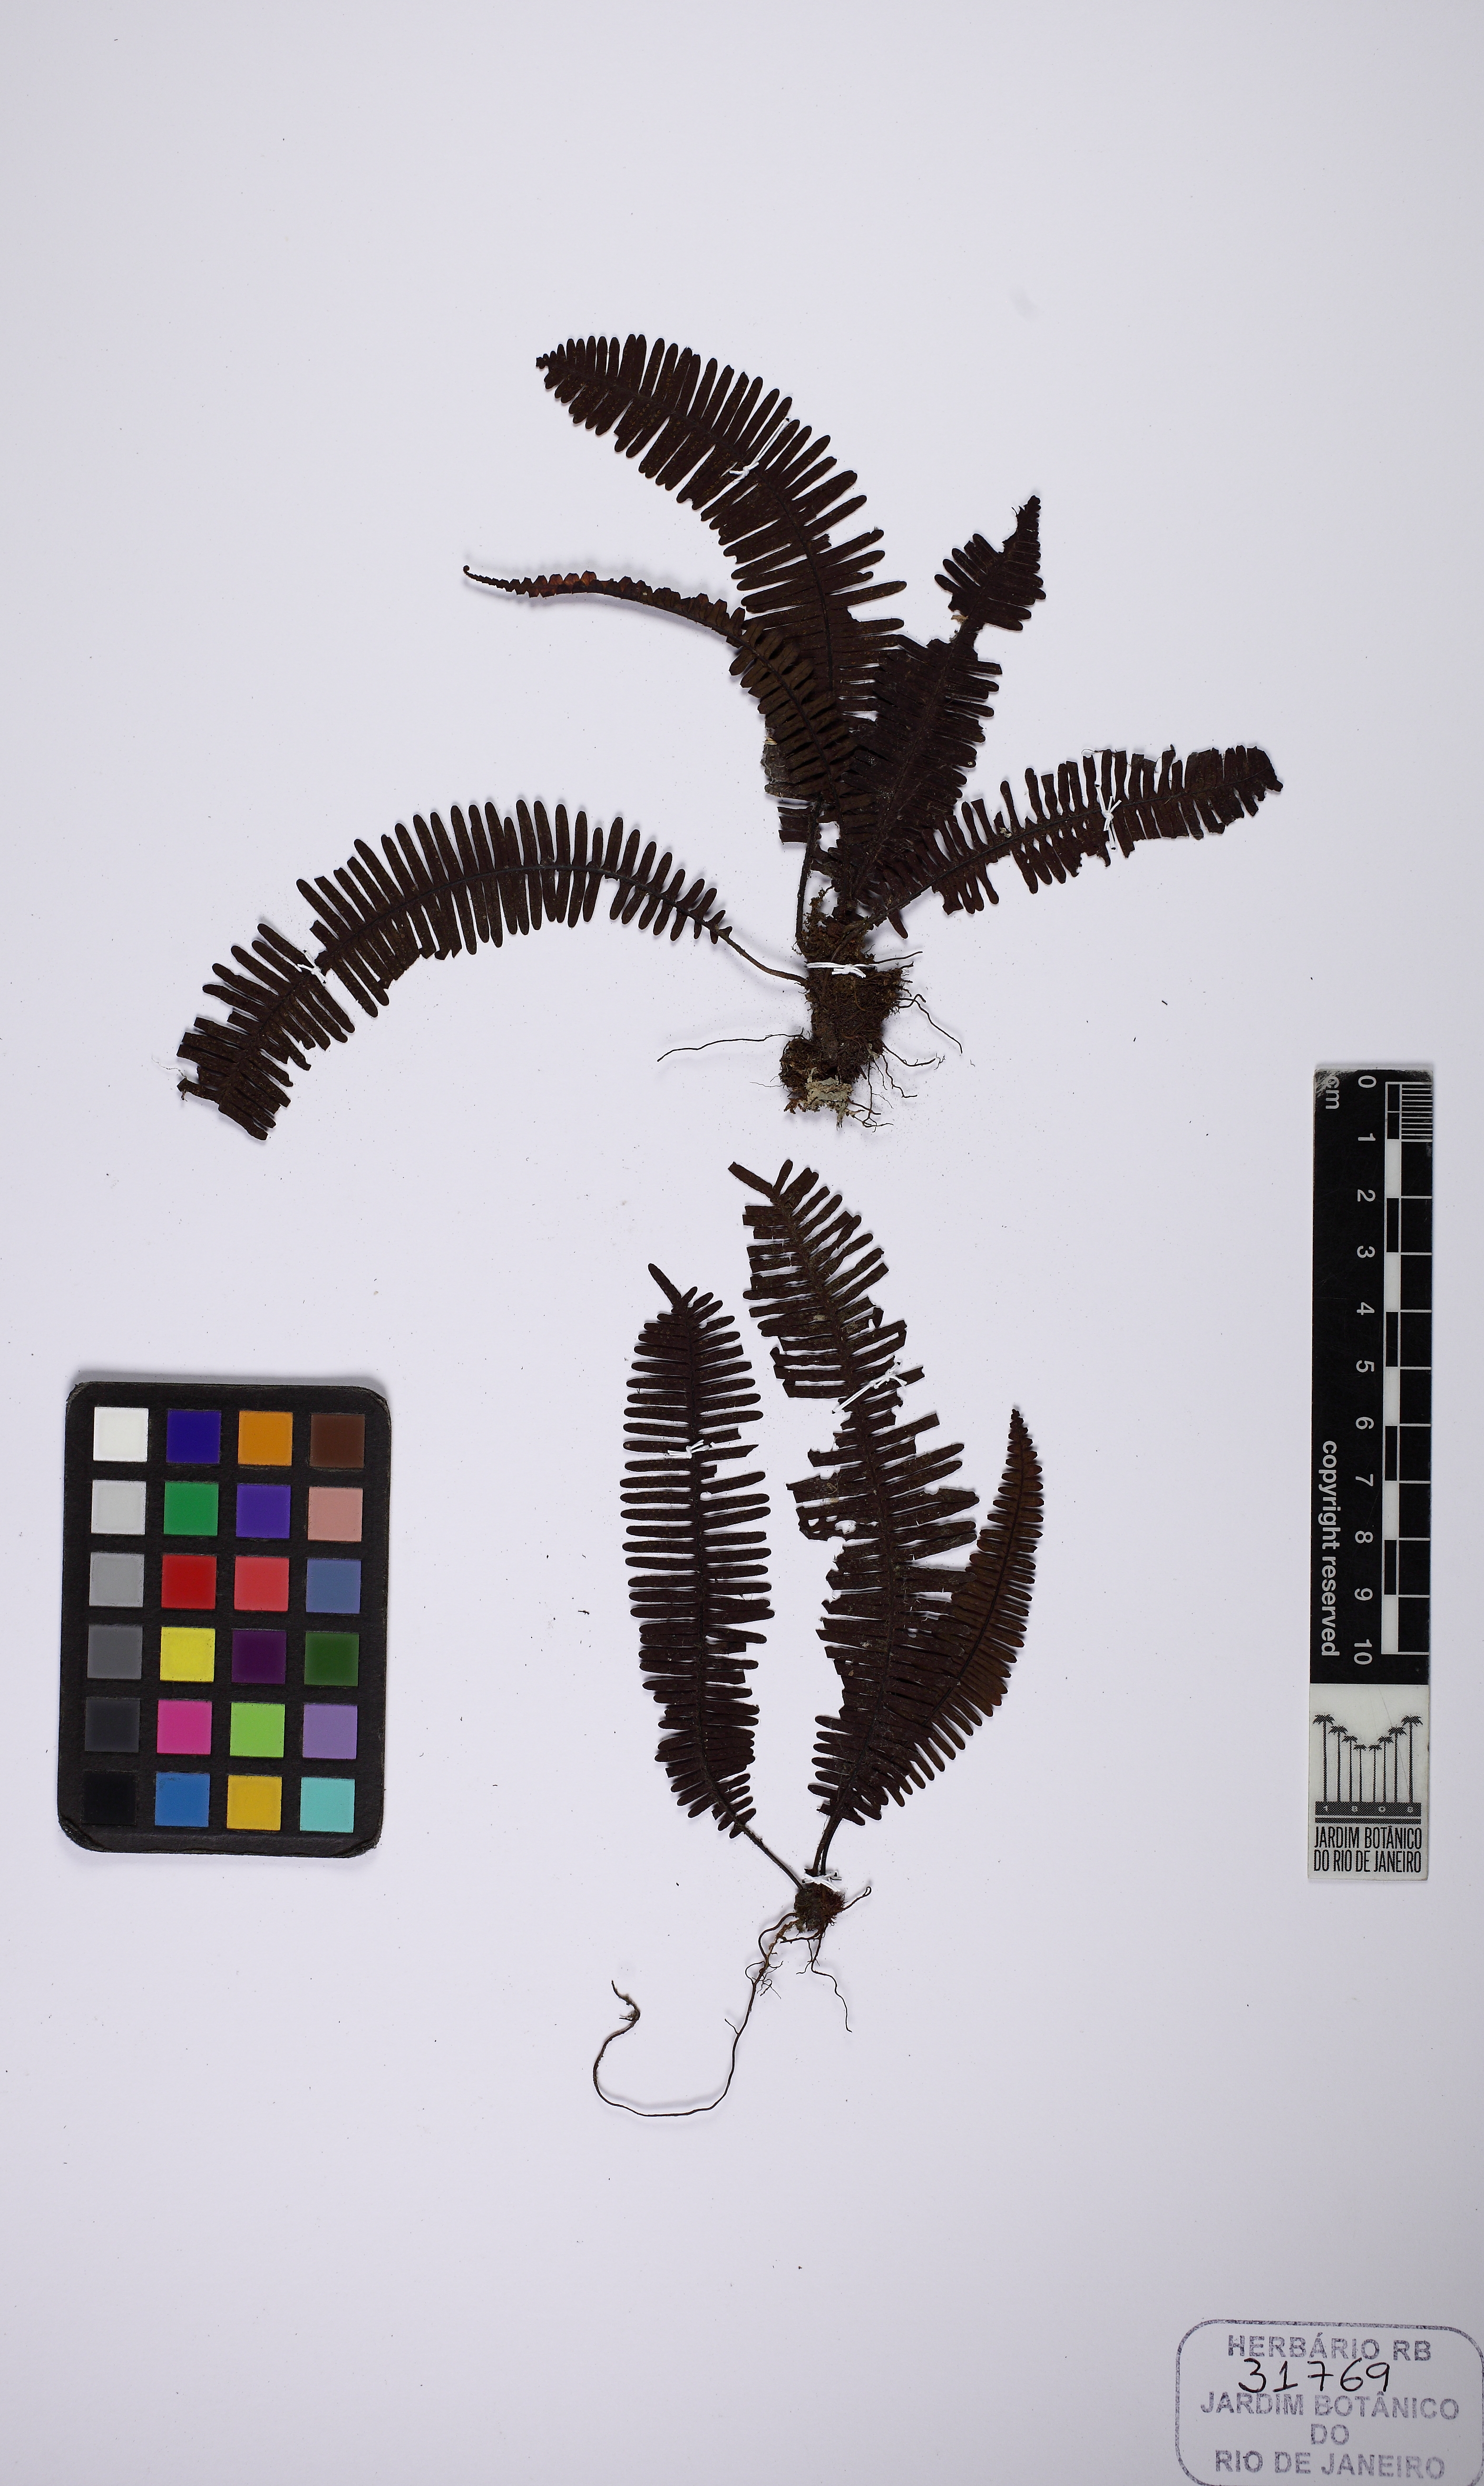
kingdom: Plantae
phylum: Tracheophyta
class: Polypodiopsida
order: Polypodiales
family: Polypodiaceae
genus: Pecluma
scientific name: Pecluma plumula
